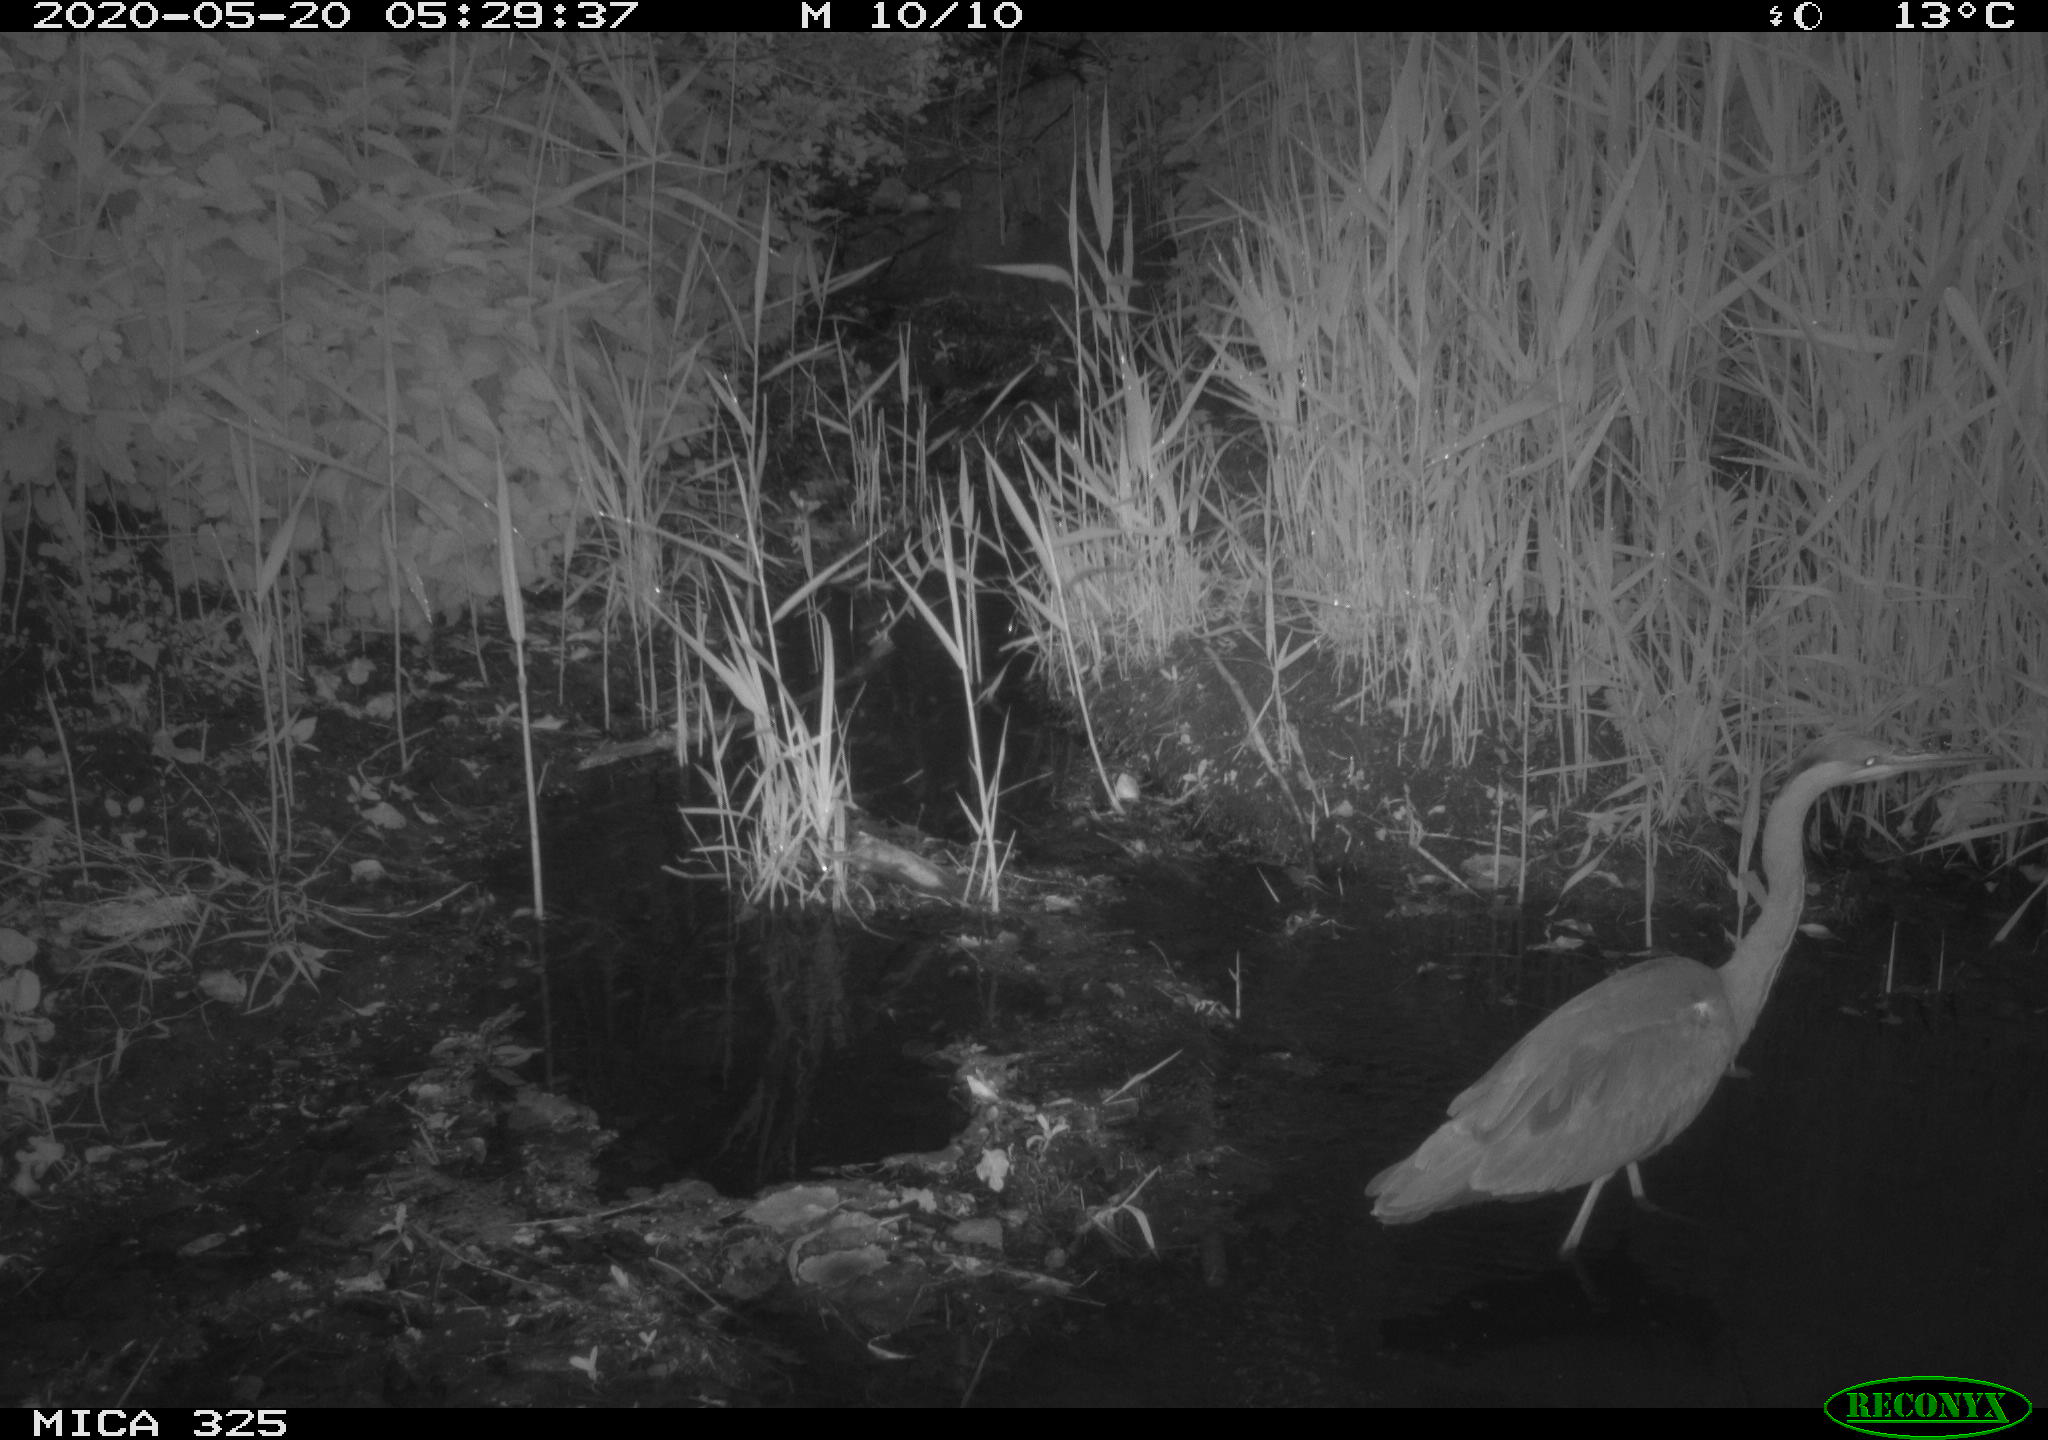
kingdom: Animalia
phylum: Chordata
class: Aves
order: Pelecaniformes
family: Ardeidae
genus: Ardea
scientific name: Ardea cinerea
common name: Grey heron
